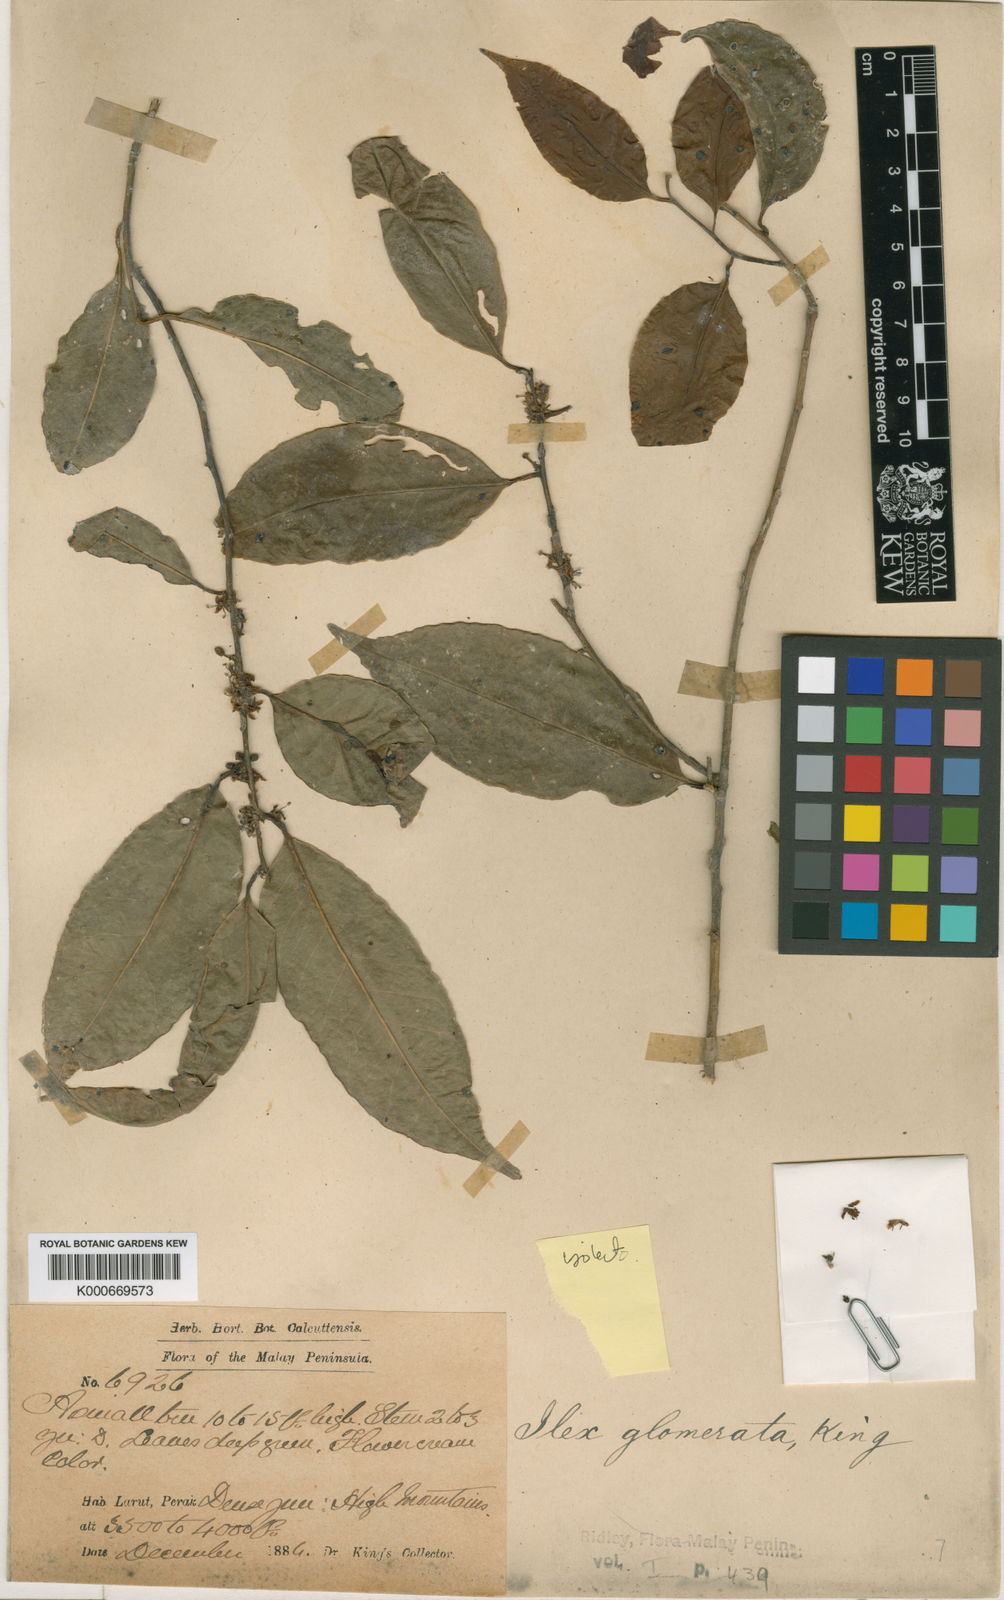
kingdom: Plantae
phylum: Tracheophyta
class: Magnoliopsida
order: Aquifoliales
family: Aquifoliaceae
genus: Ilex
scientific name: Ilex glomerata
